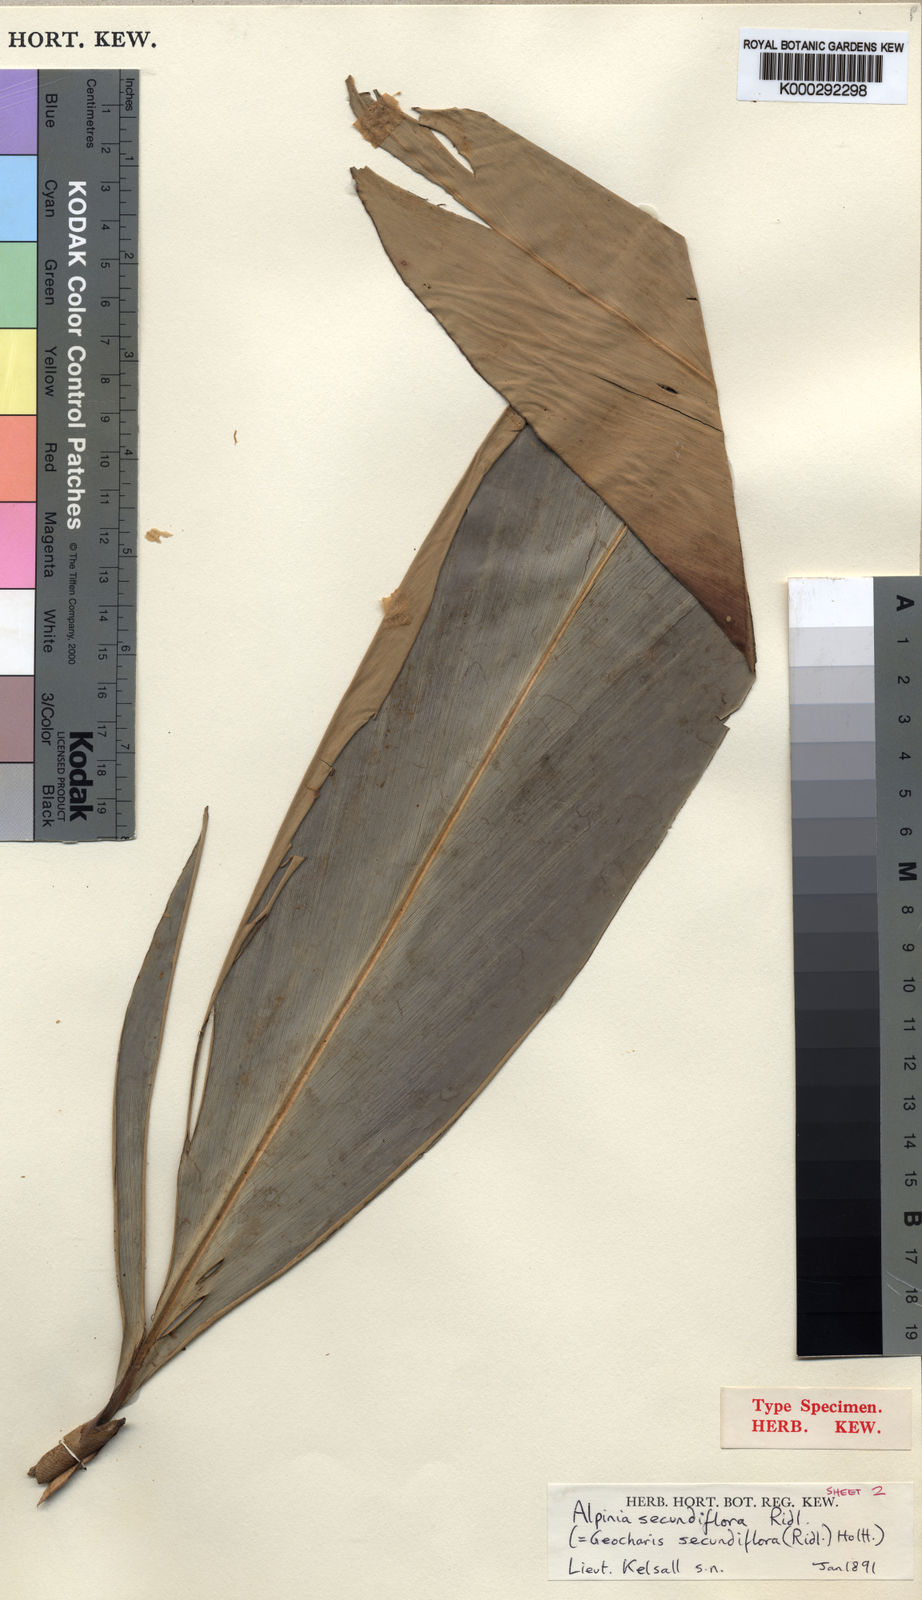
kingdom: Plantae
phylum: Tracheophyta
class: Liliopsida
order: Zingiberales
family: Zingiberaceae
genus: Geocharis
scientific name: Geocharis secundiflora
